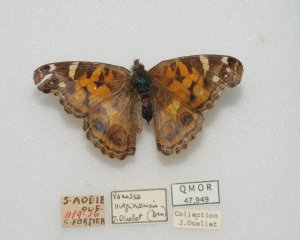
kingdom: Animalia
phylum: Arthropoda
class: Insecta
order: Lepidoptera
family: Nymphalidae
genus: Vanessa
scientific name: Vanessa virginiensis
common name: American Lady
